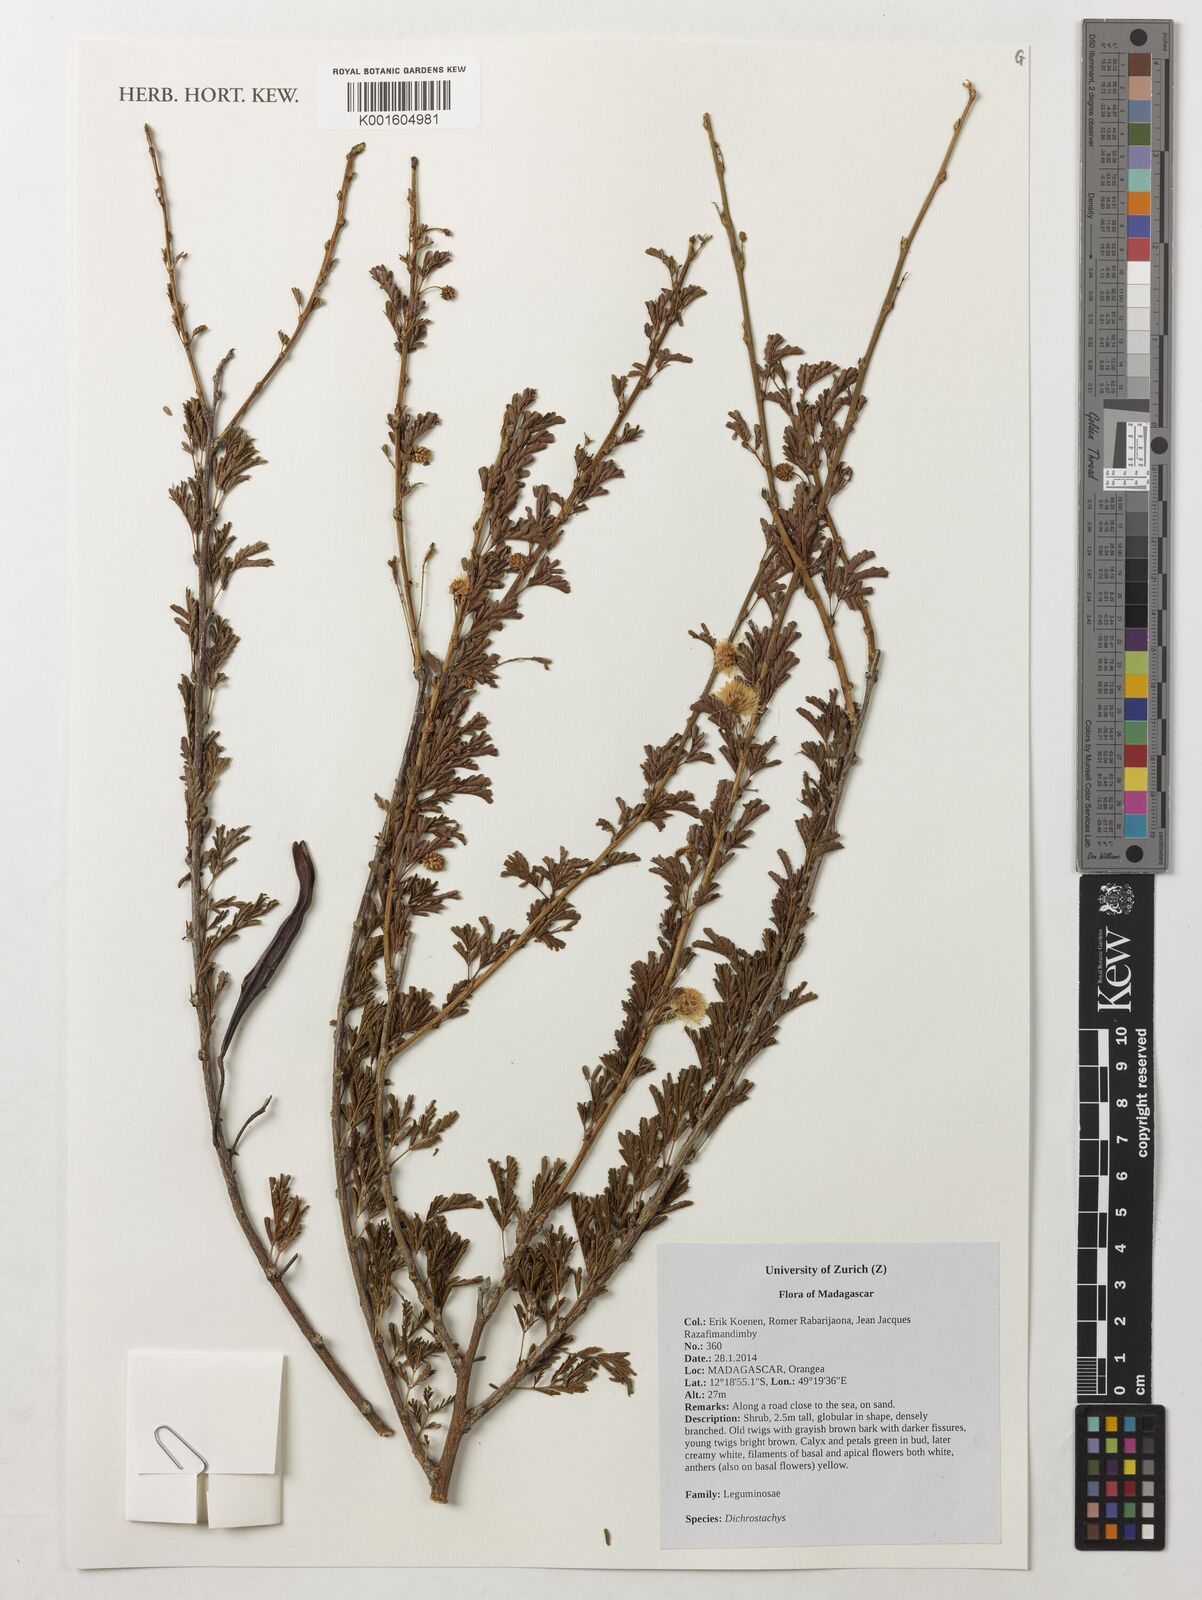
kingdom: Plantae
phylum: Tracheophyta
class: Magnoliopsida
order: Fabales
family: Fabaceae
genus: Dichrostachys
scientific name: Dichrostachys
